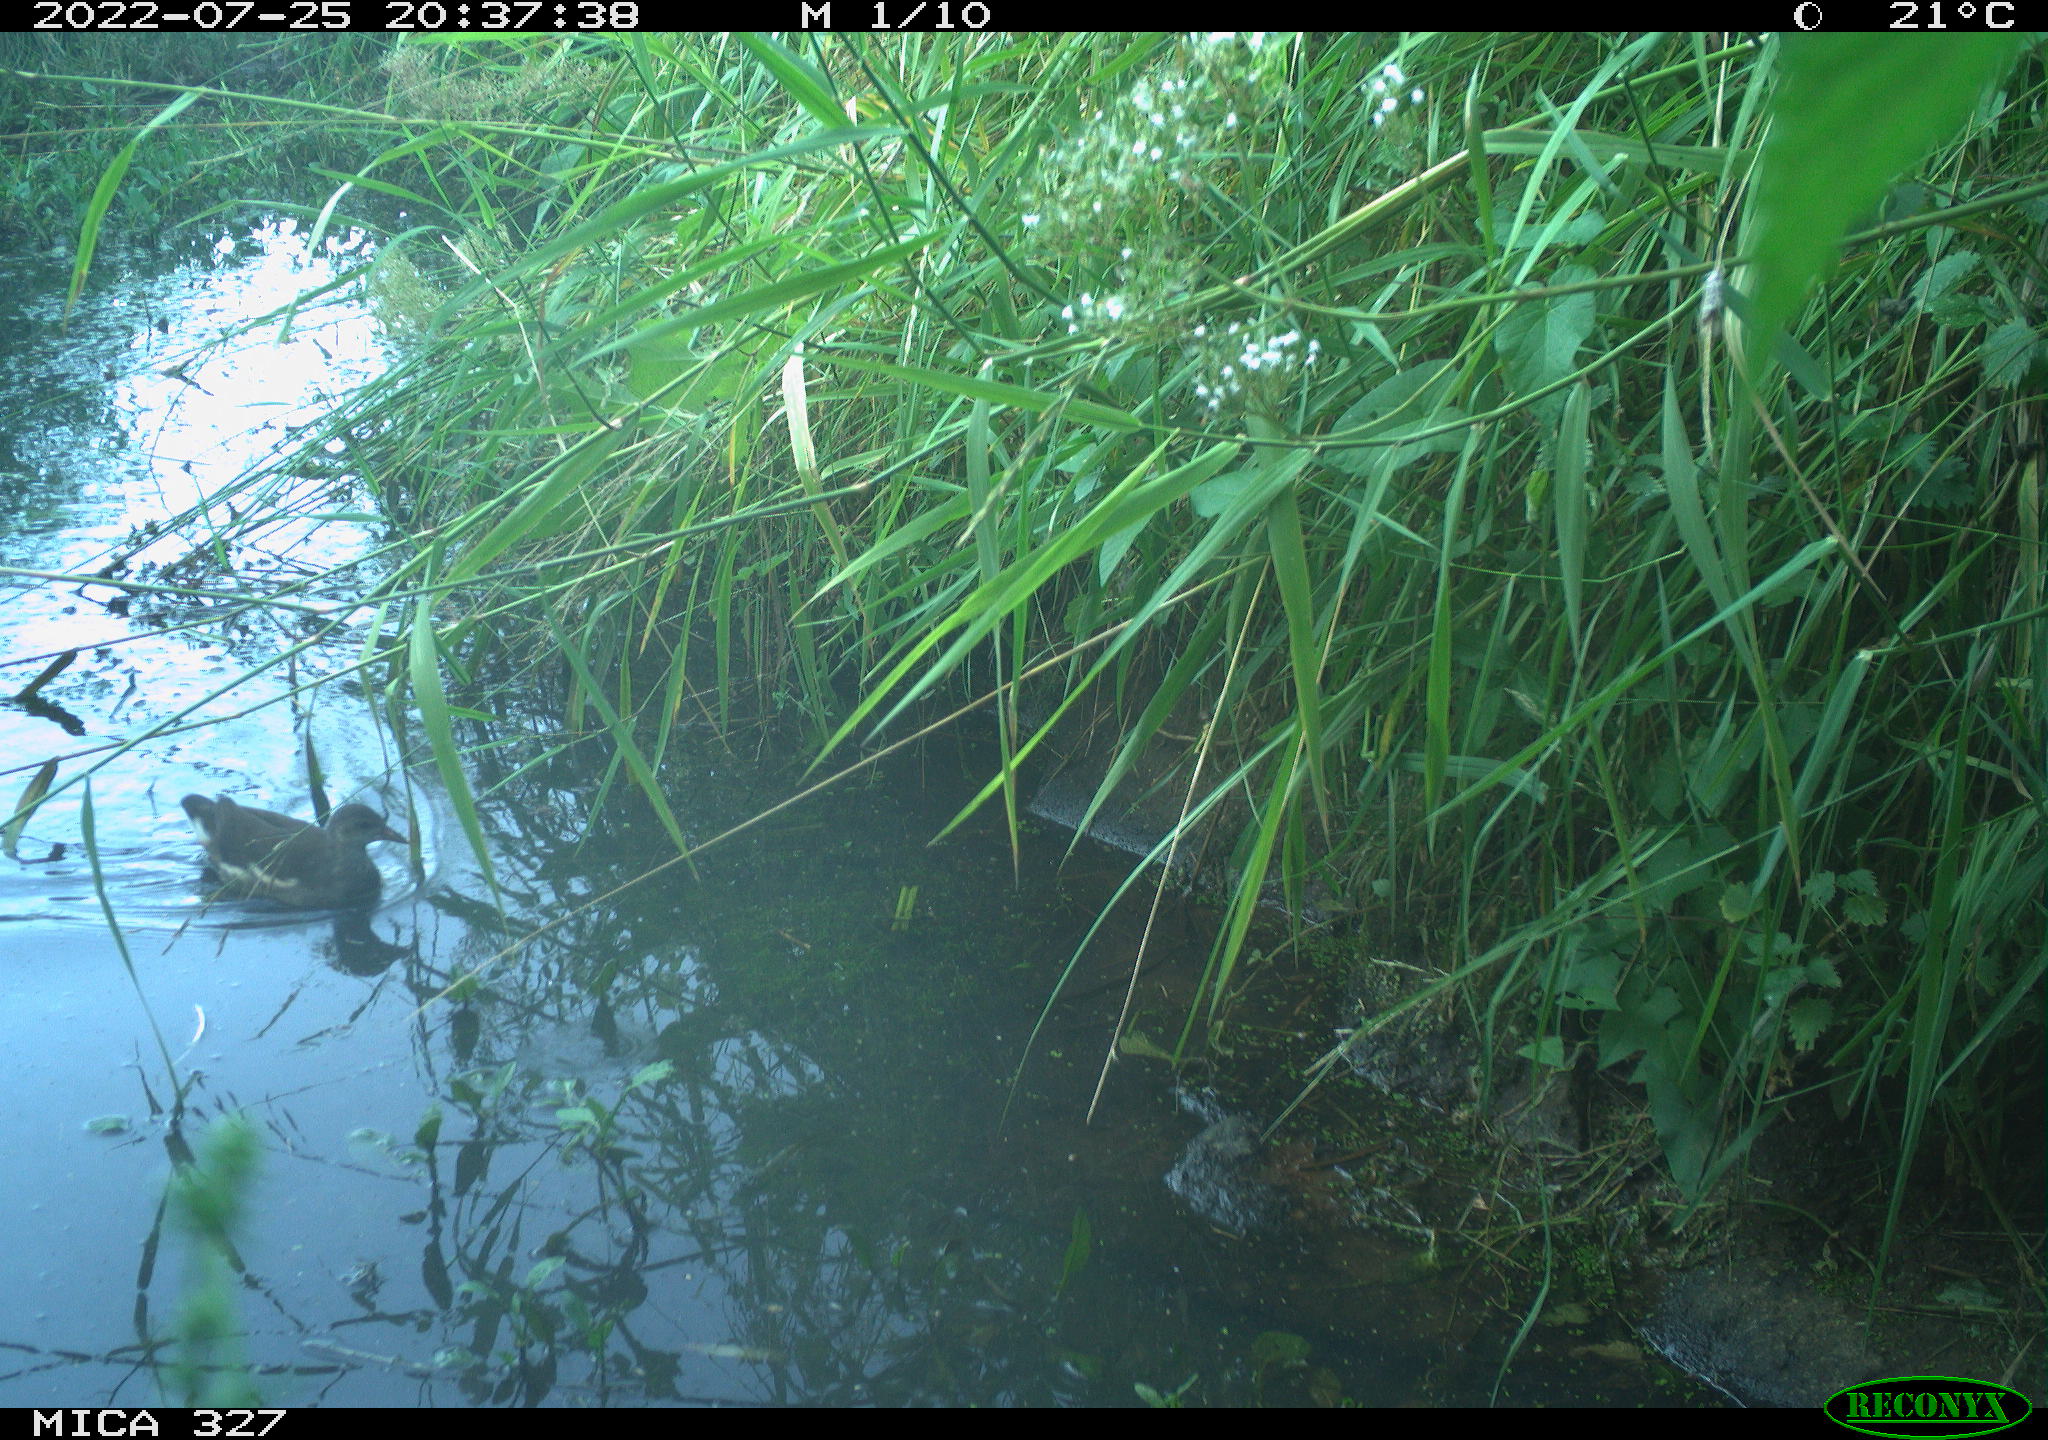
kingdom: Animalia
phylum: Chordata
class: Aves
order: Gruiformes
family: Rallidae
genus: Gallinula
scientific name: Gallinula chloropus
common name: Common moorhen
